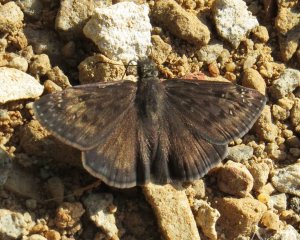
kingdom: Animalia
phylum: Arthropoda
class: Insecta
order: Lepidoptera
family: Hesperiidae
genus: Gesta
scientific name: Gesta
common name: Horace's Duskywing
